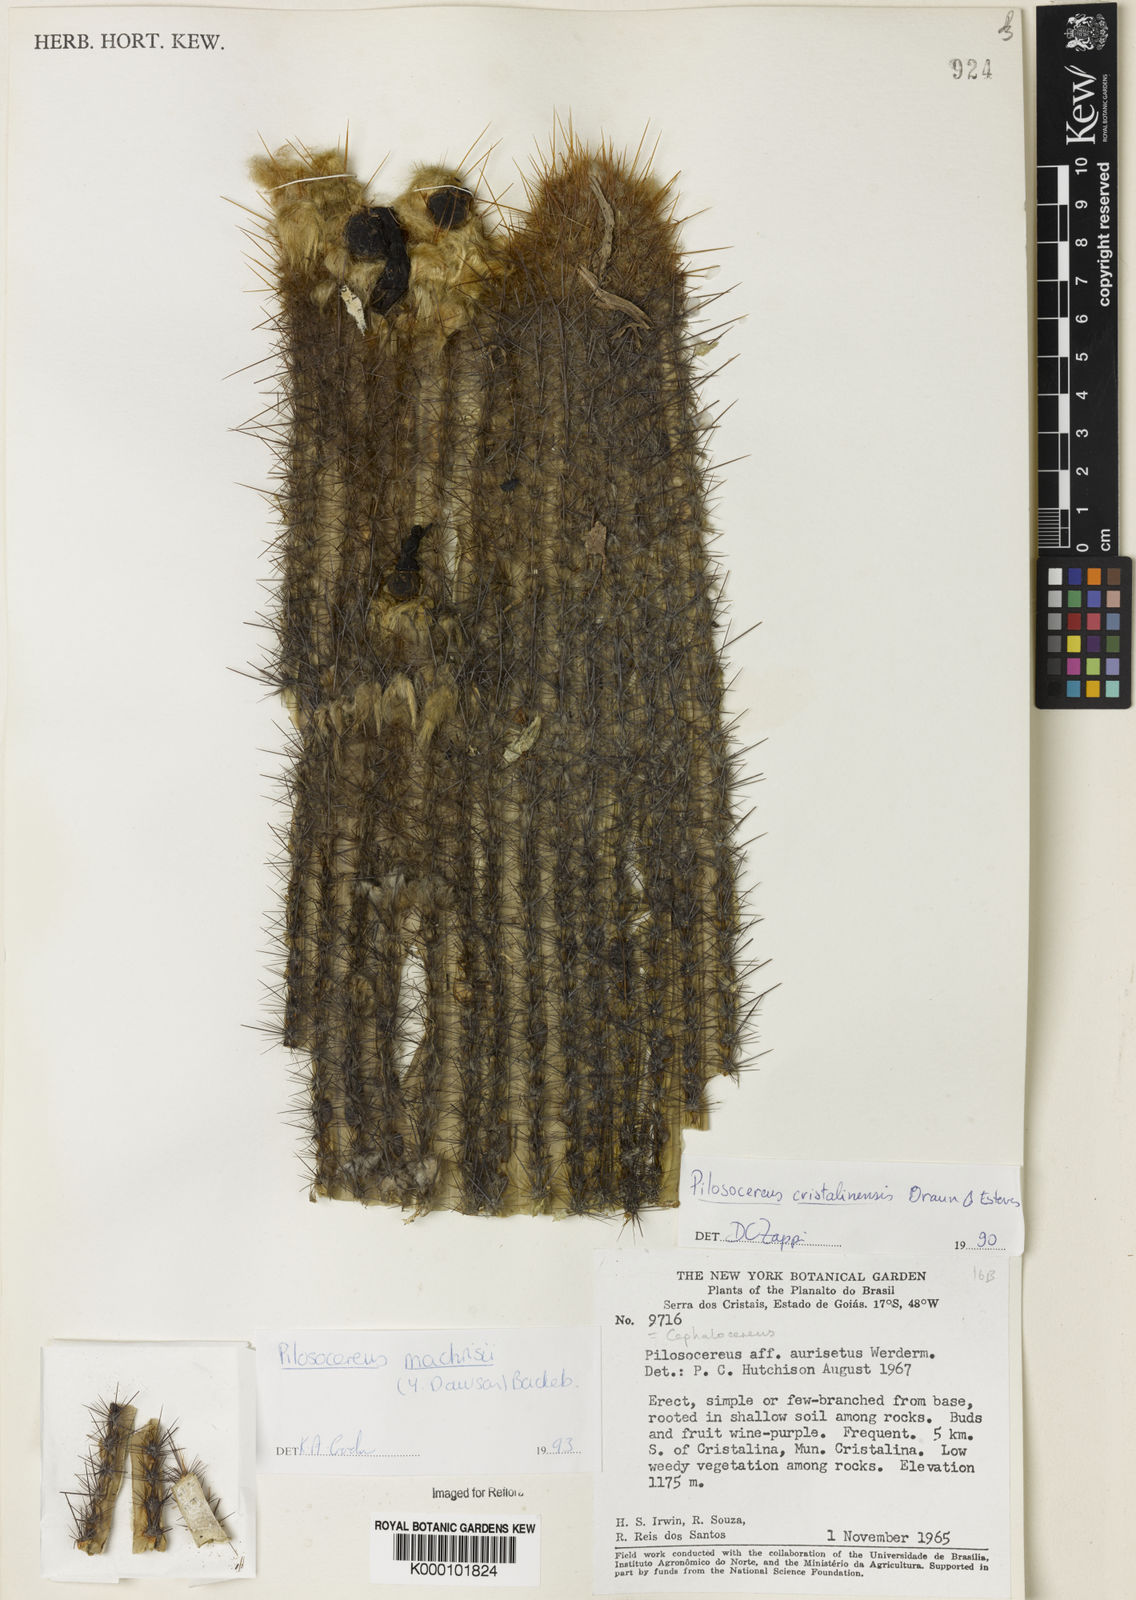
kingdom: Plantae
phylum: Tracheophyta
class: Magnoliopsida
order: Caryophyllales
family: Cactaceae
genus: Pilosocereus
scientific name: Pilosocereus machrisii
